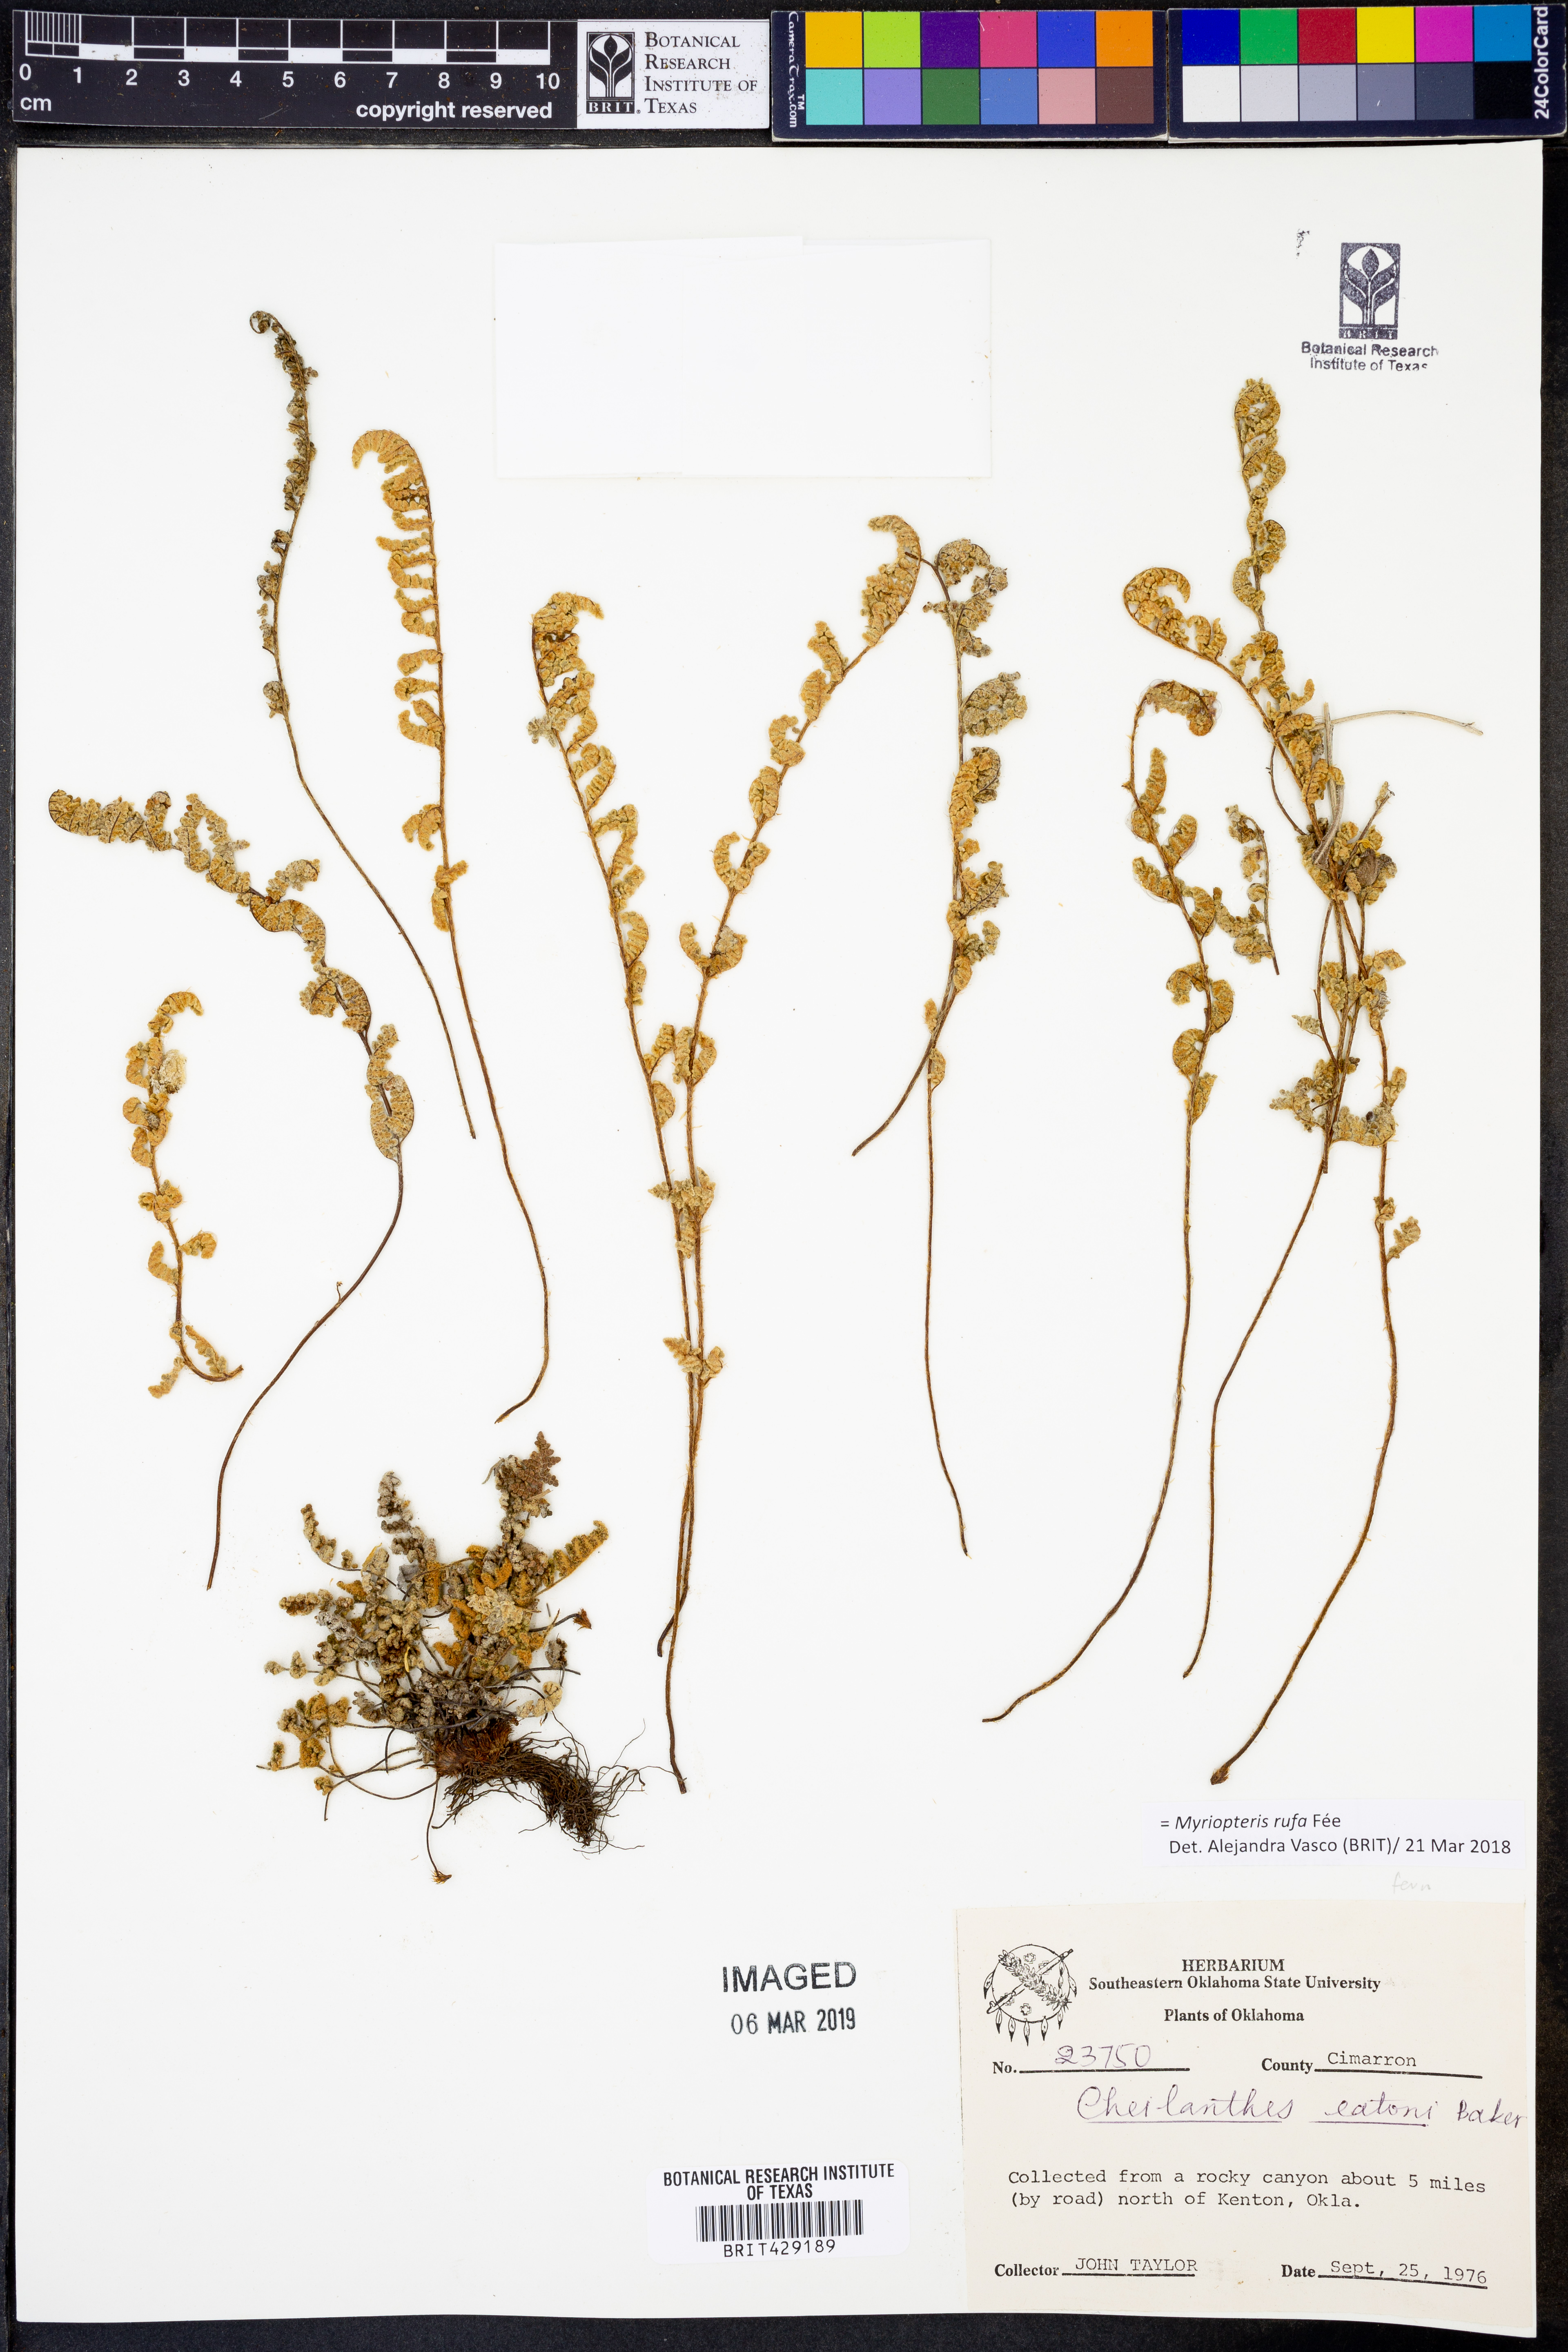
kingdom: Plantae
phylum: Tracheophyta
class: Polypodiopsida
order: Polypodiales
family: Pteridaceae
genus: Myriopteris
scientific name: Myriopteris rufa
